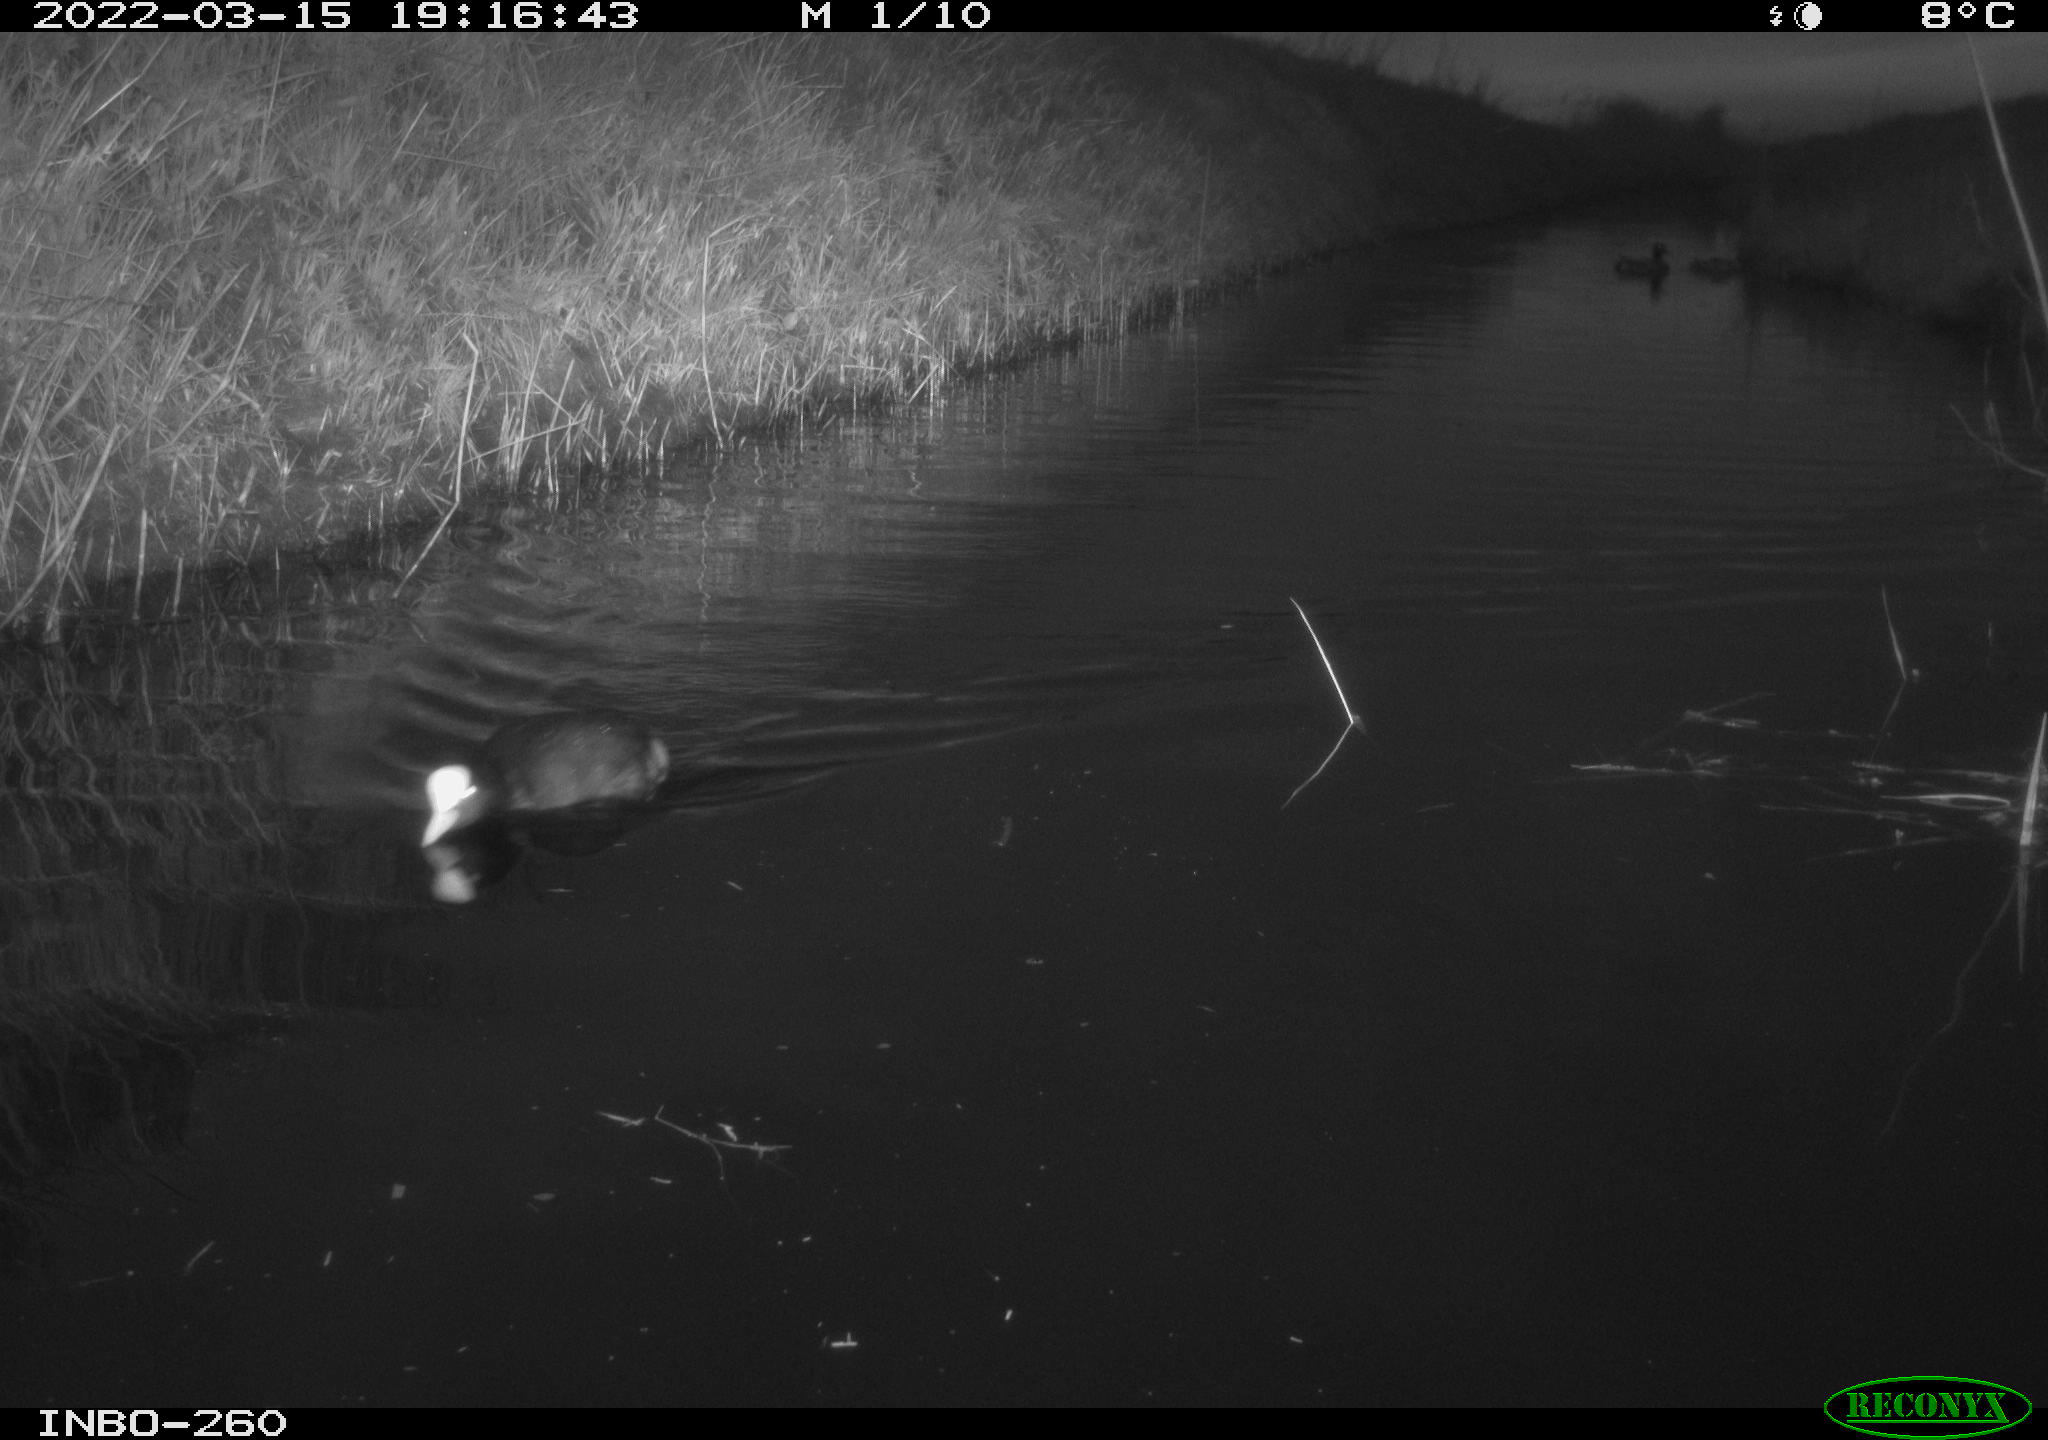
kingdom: Animalia
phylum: Chordata
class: Aves
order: Gruiformes
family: Rallidae
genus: Fulica
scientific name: Fulica atra
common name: Eurasian coot
